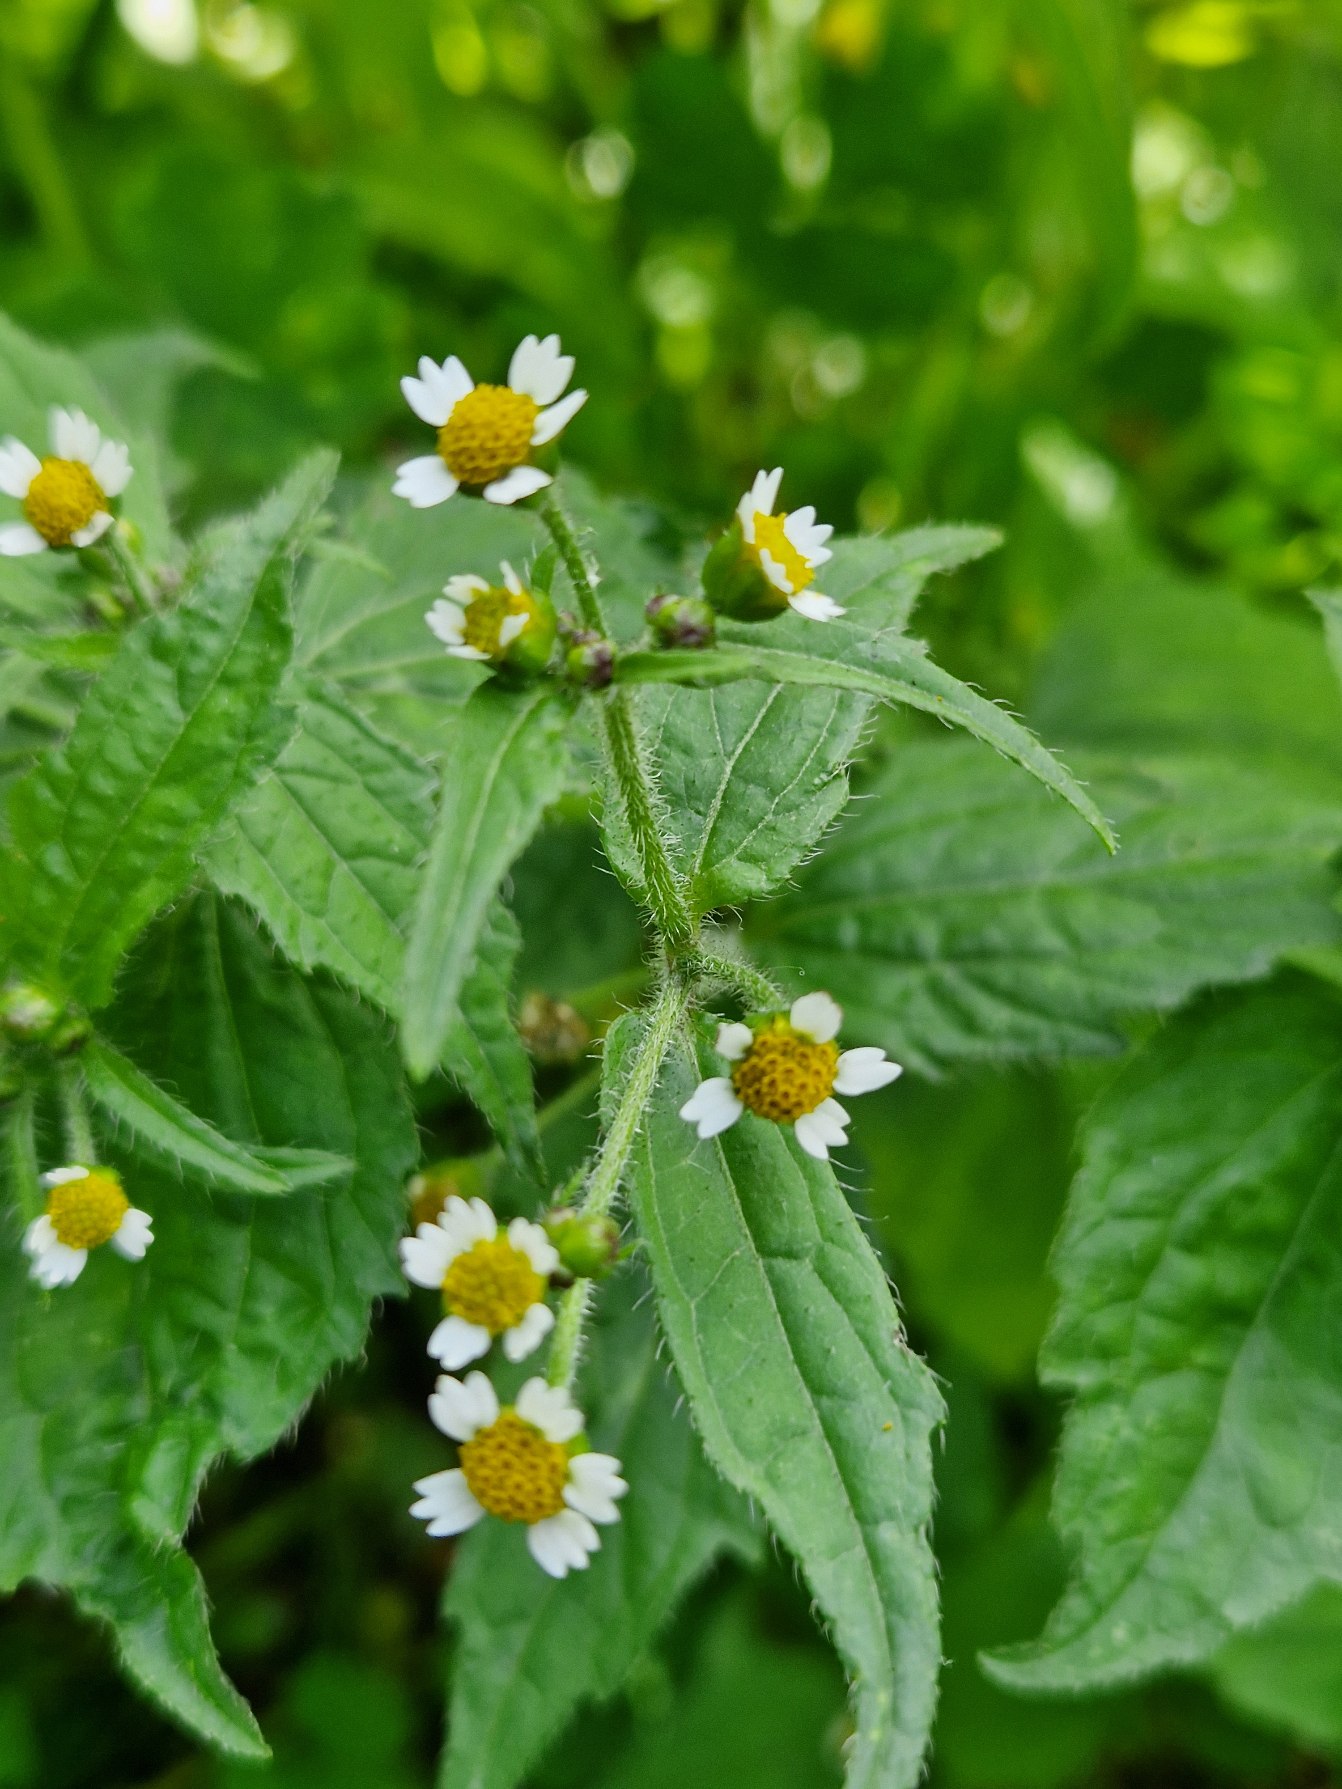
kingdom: Plantae
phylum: Tracheophyta
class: Magnoliopsida
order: Asterales
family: Asteraceae
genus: Galinsoga
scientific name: Galinsoga quadriradiata
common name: Kirtel-kortstråle
